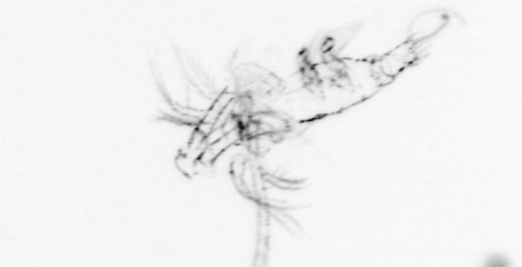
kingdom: Animalia
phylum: Arthropoda
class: Copepoda
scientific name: Copepoda
